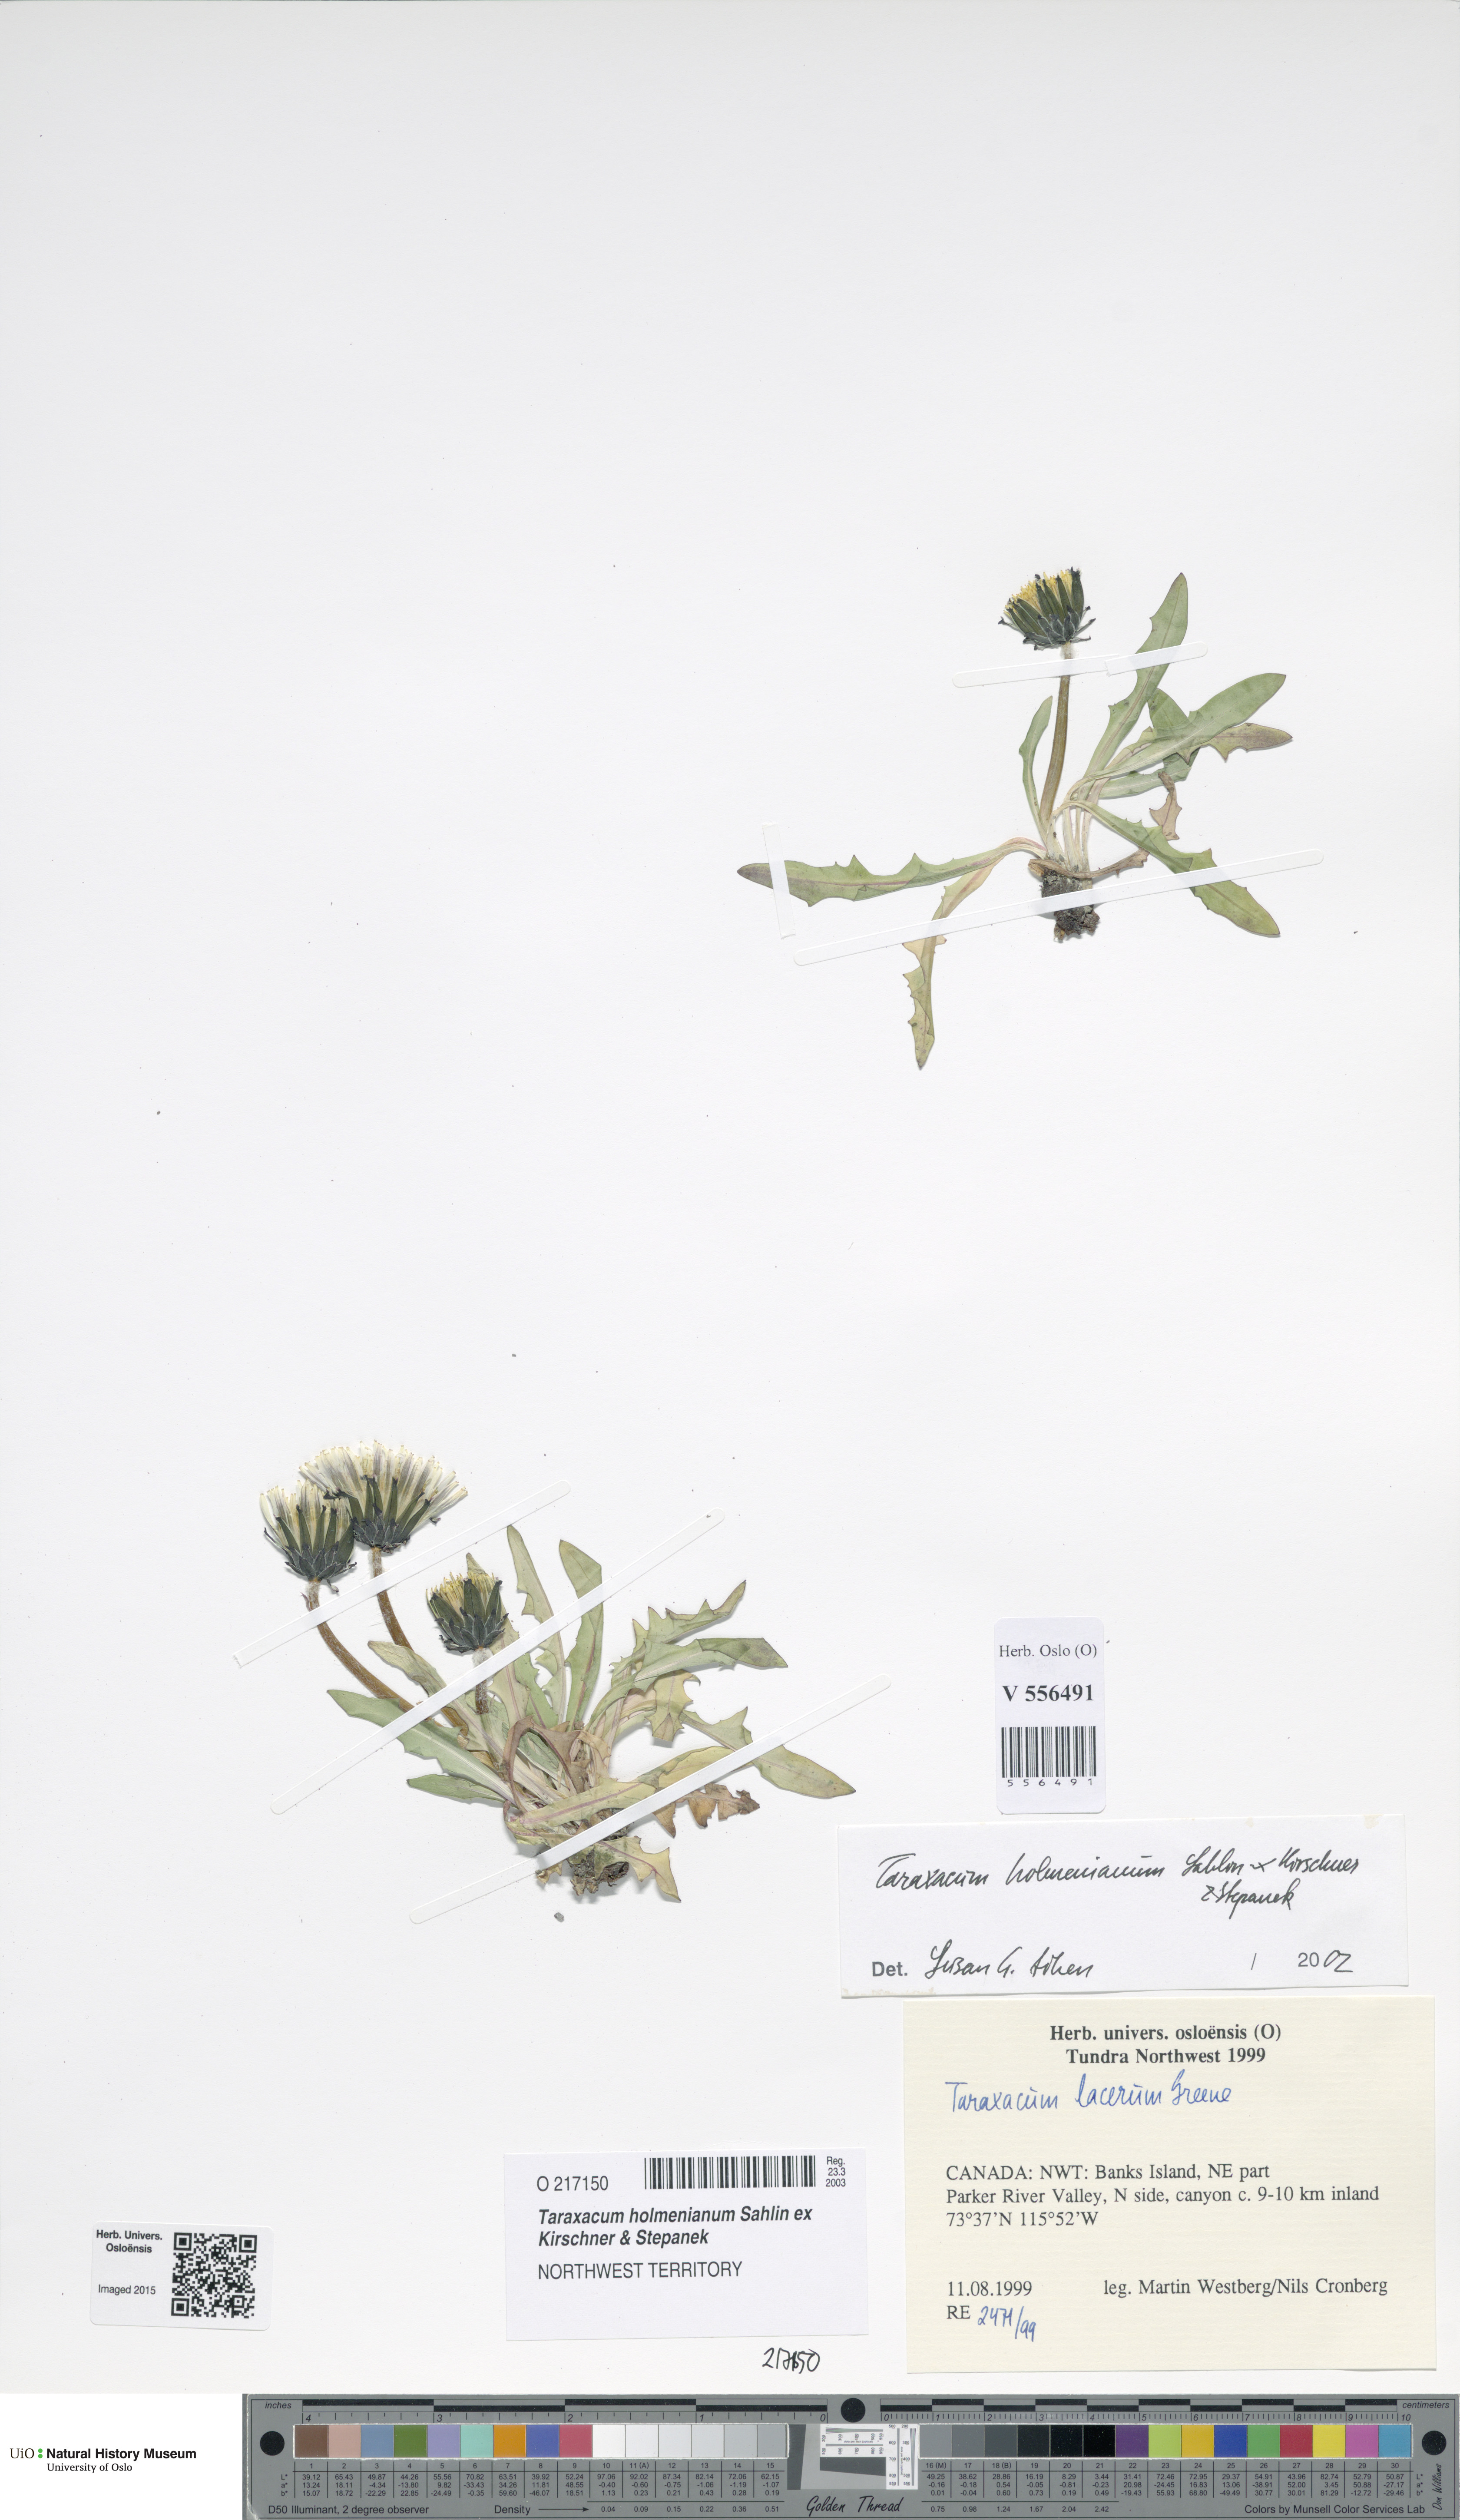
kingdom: Plantae
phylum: Tracheophyta
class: Magnoliopsida
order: Asterales
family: Asteraceae
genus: Taraxacum
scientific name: Taraxacum holmenianum
